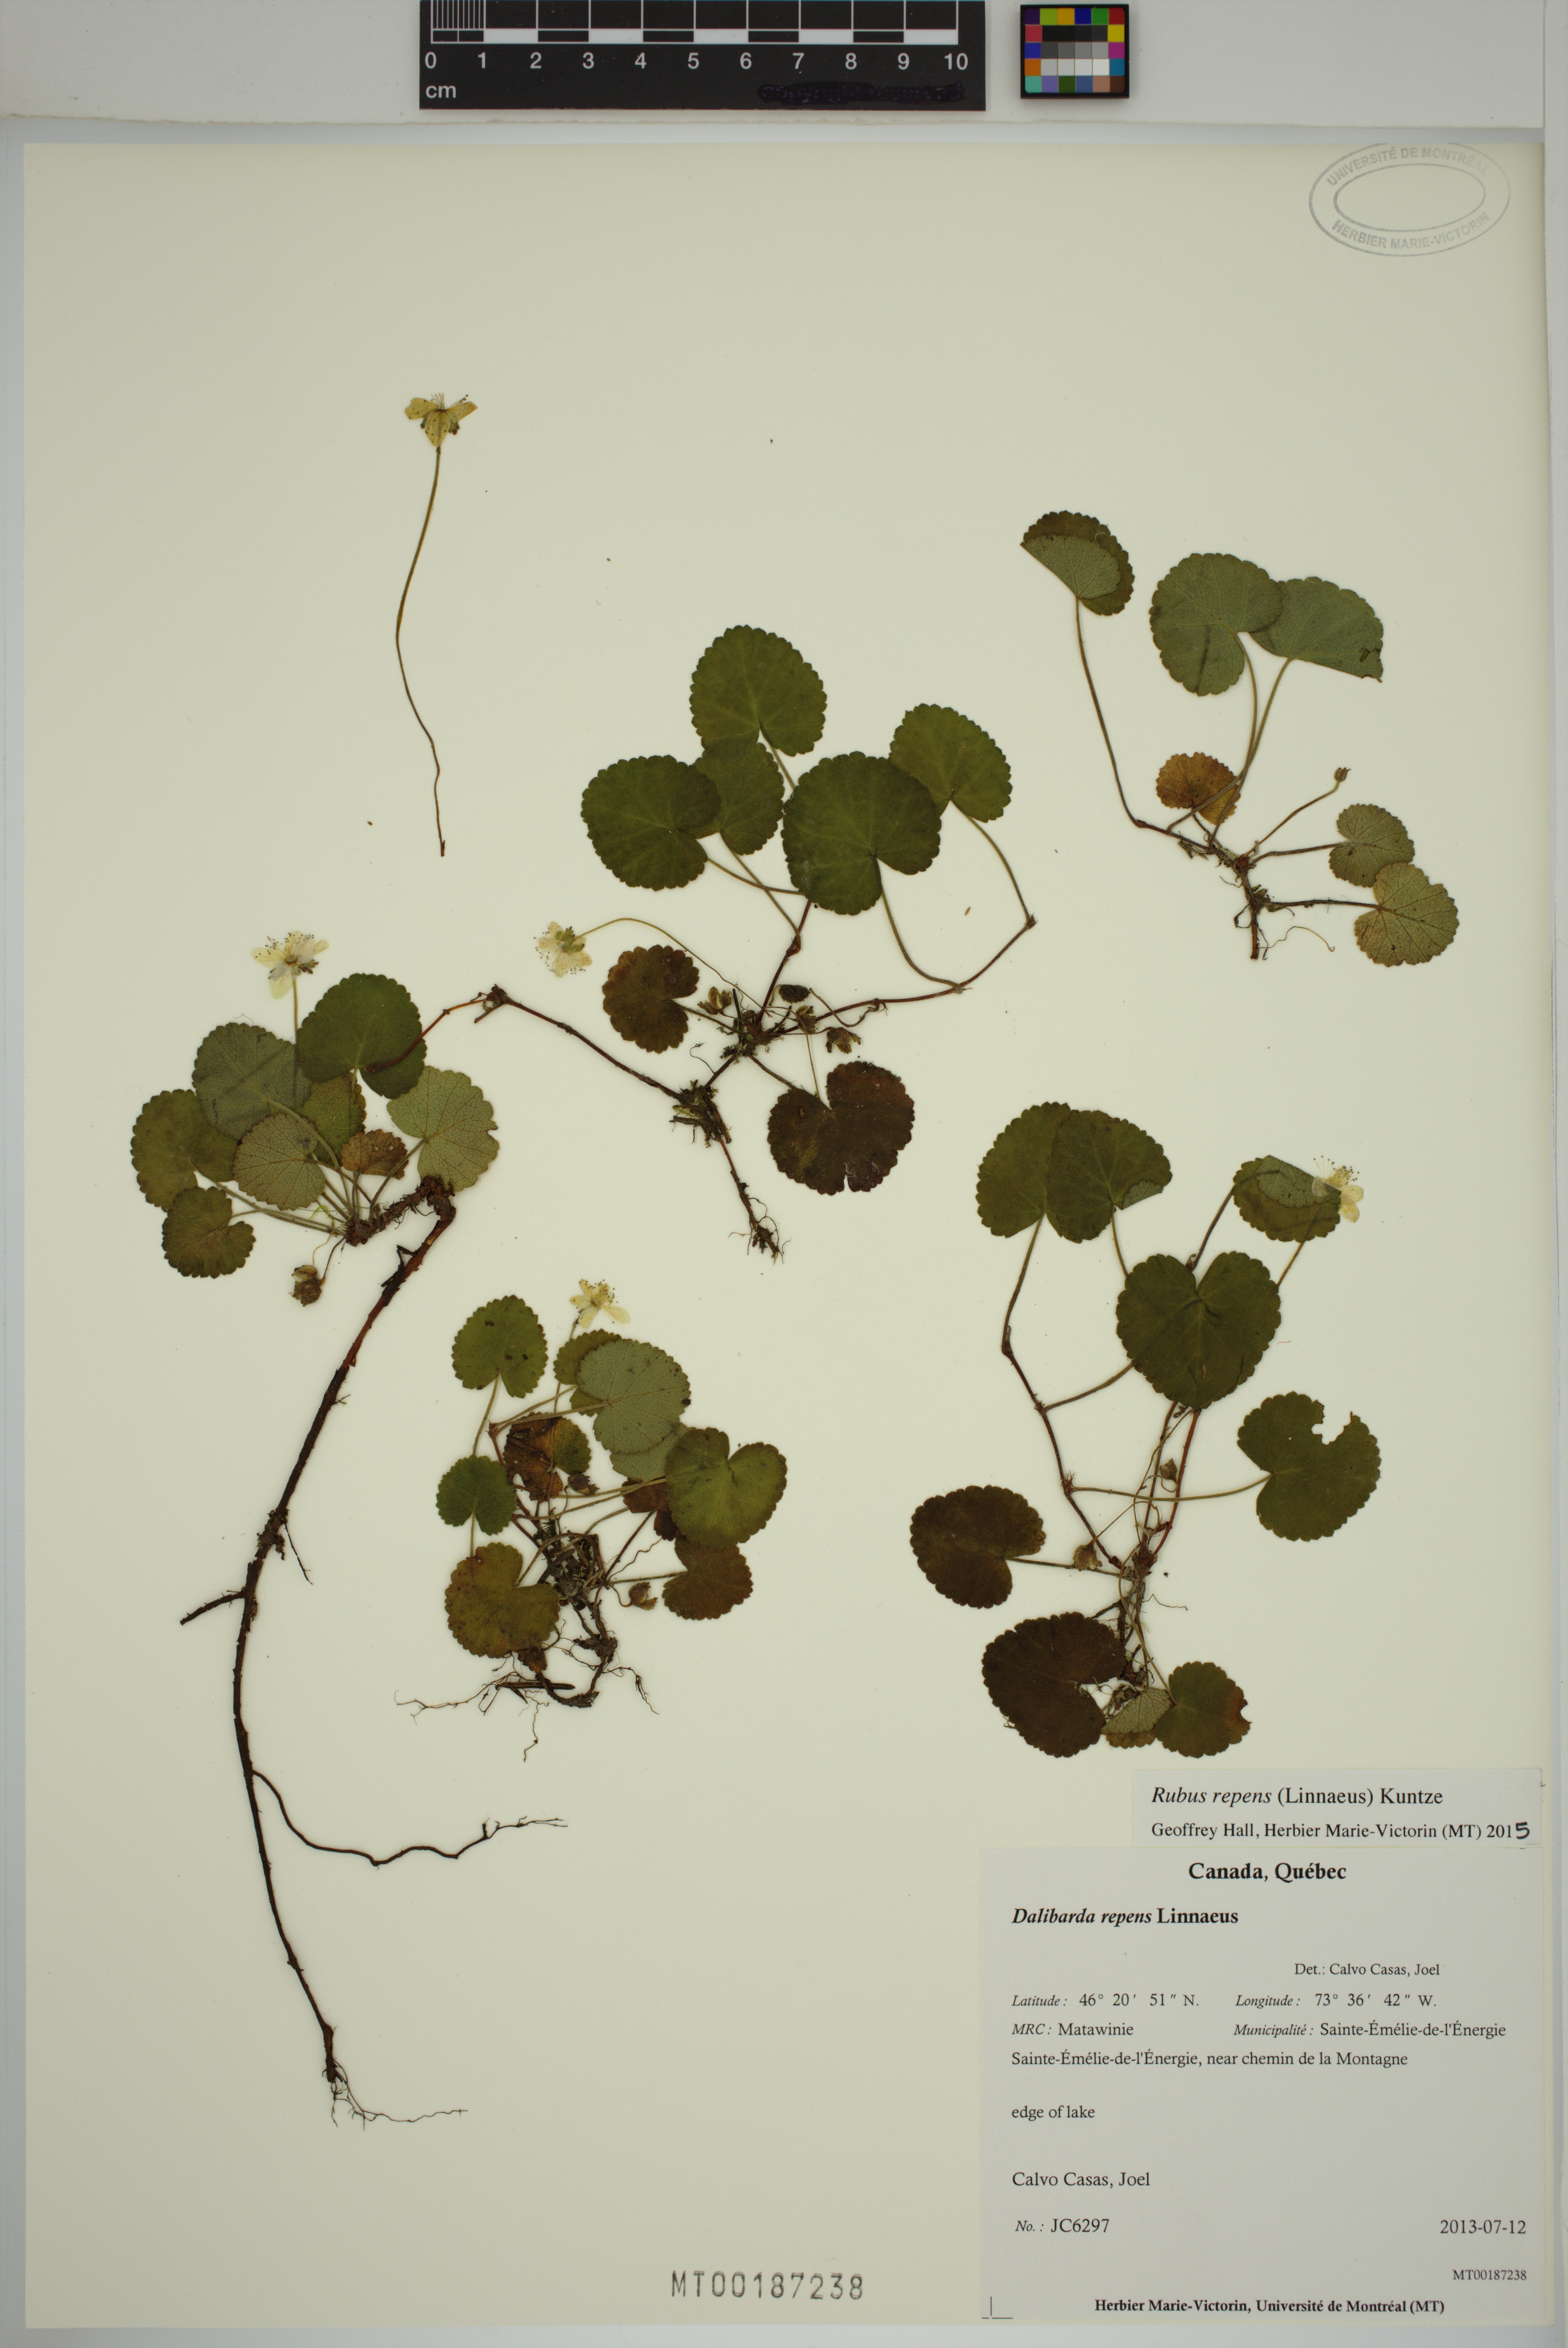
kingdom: Plantae
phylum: Tracheophyta
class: Magnoliopsida
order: Rosales
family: Rosaceae
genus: Dalibarda
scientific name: Dalibarda repens
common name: Dewdrop
